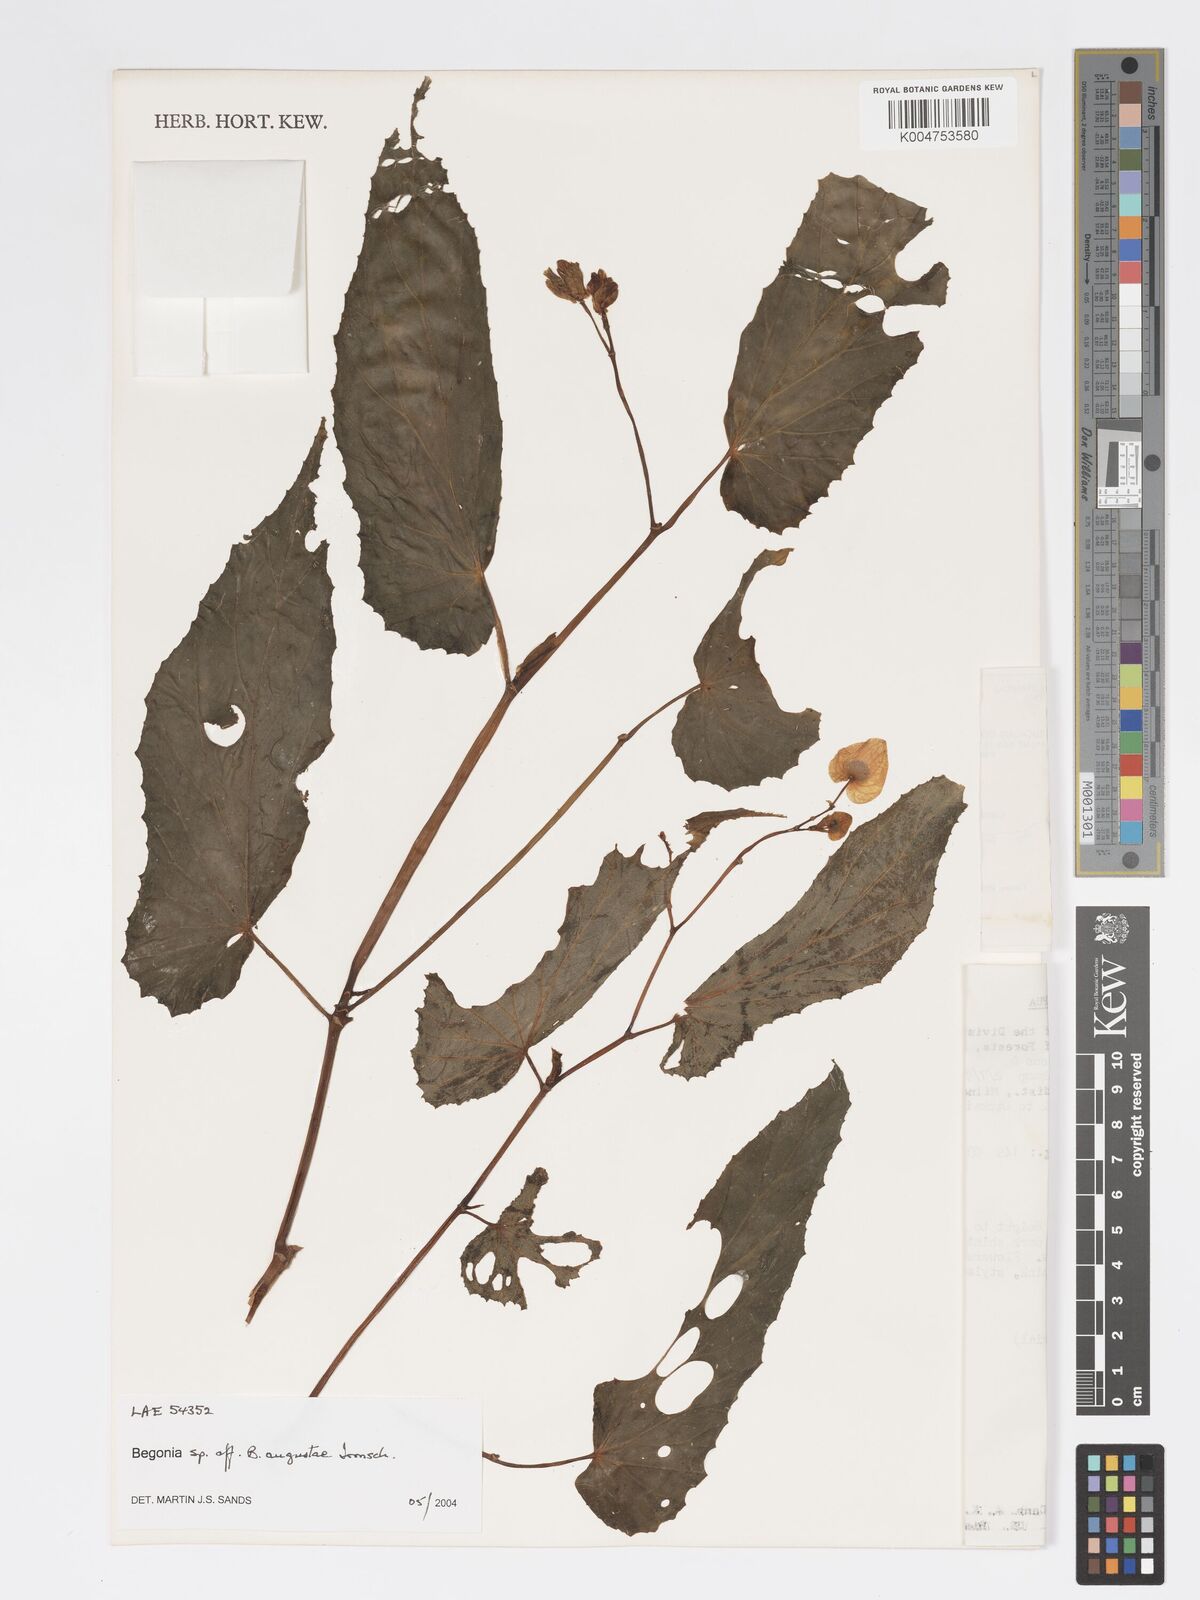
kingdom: Plantae
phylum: Tracheophyta
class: Magnoliopsida
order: Cucurbitales
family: Begoniaceae
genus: Begonia
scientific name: Begonia augustae
